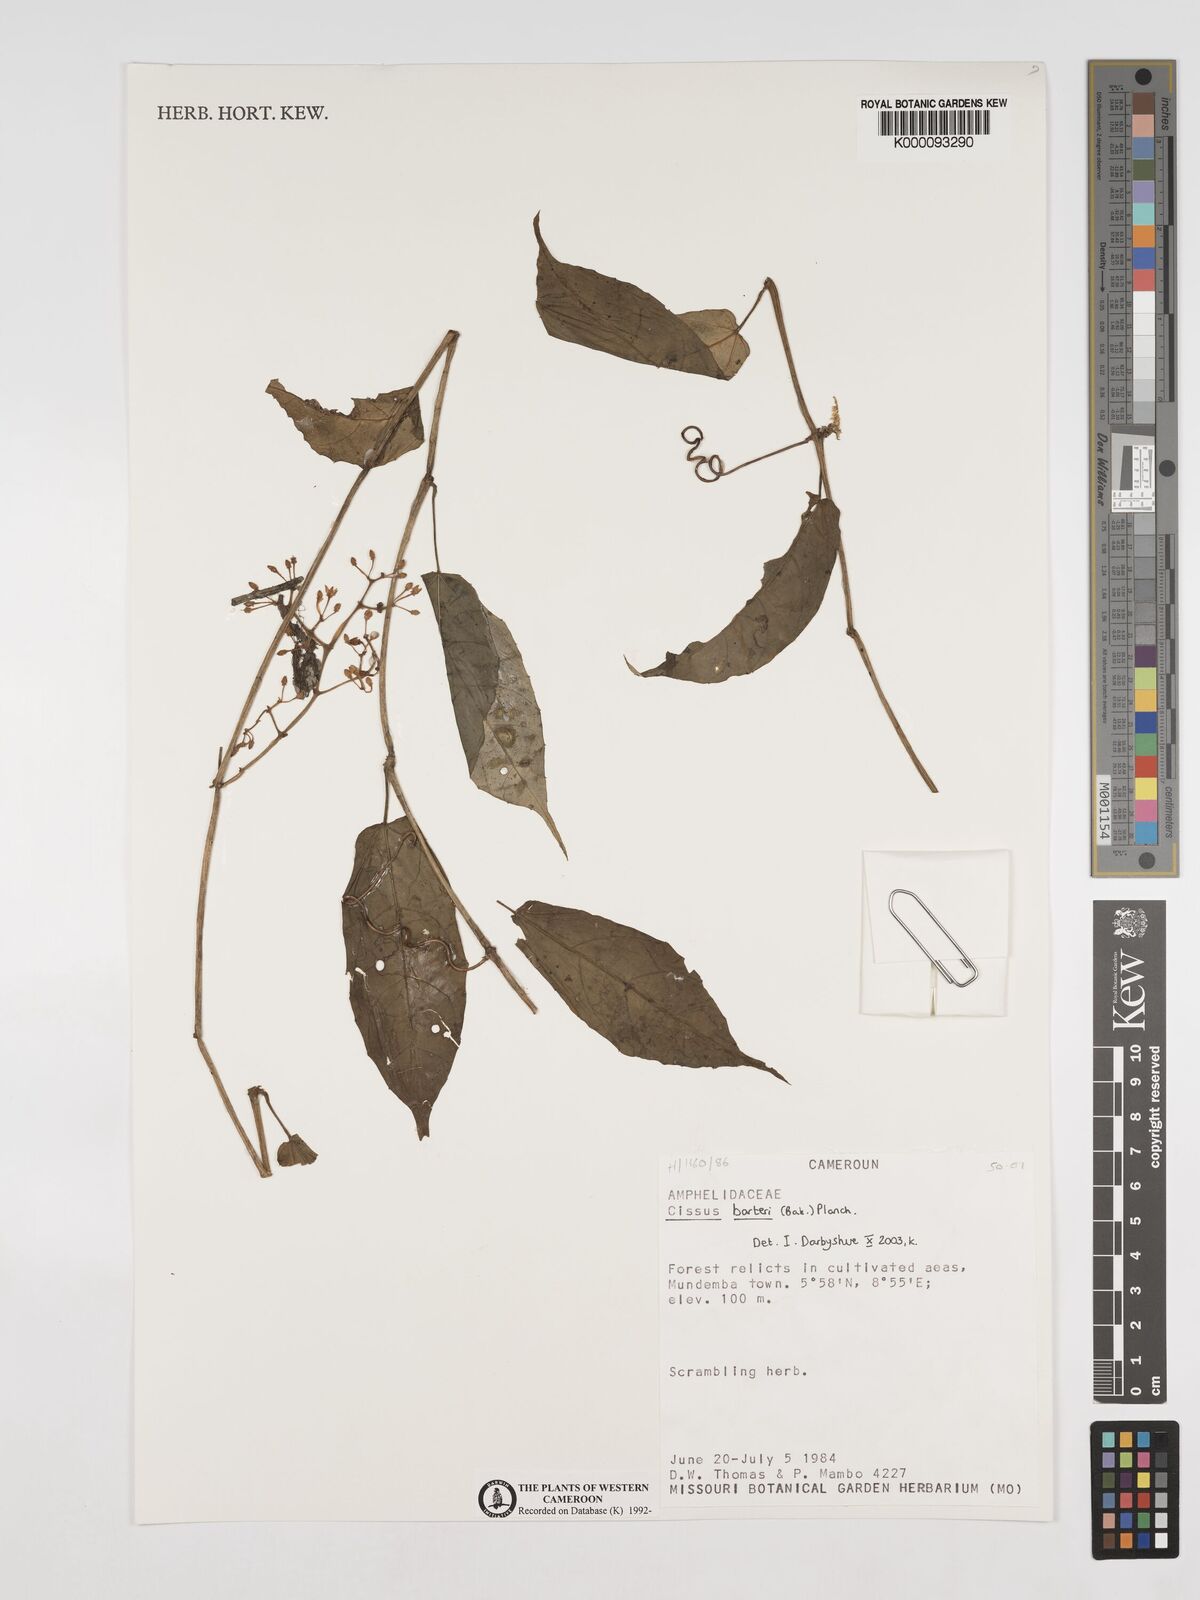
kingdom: Plantae
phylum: Tracheophyta
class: Magnoliopsida
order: Vitales
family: Vitaceae
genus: Cissus
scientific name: Cissus barteri
